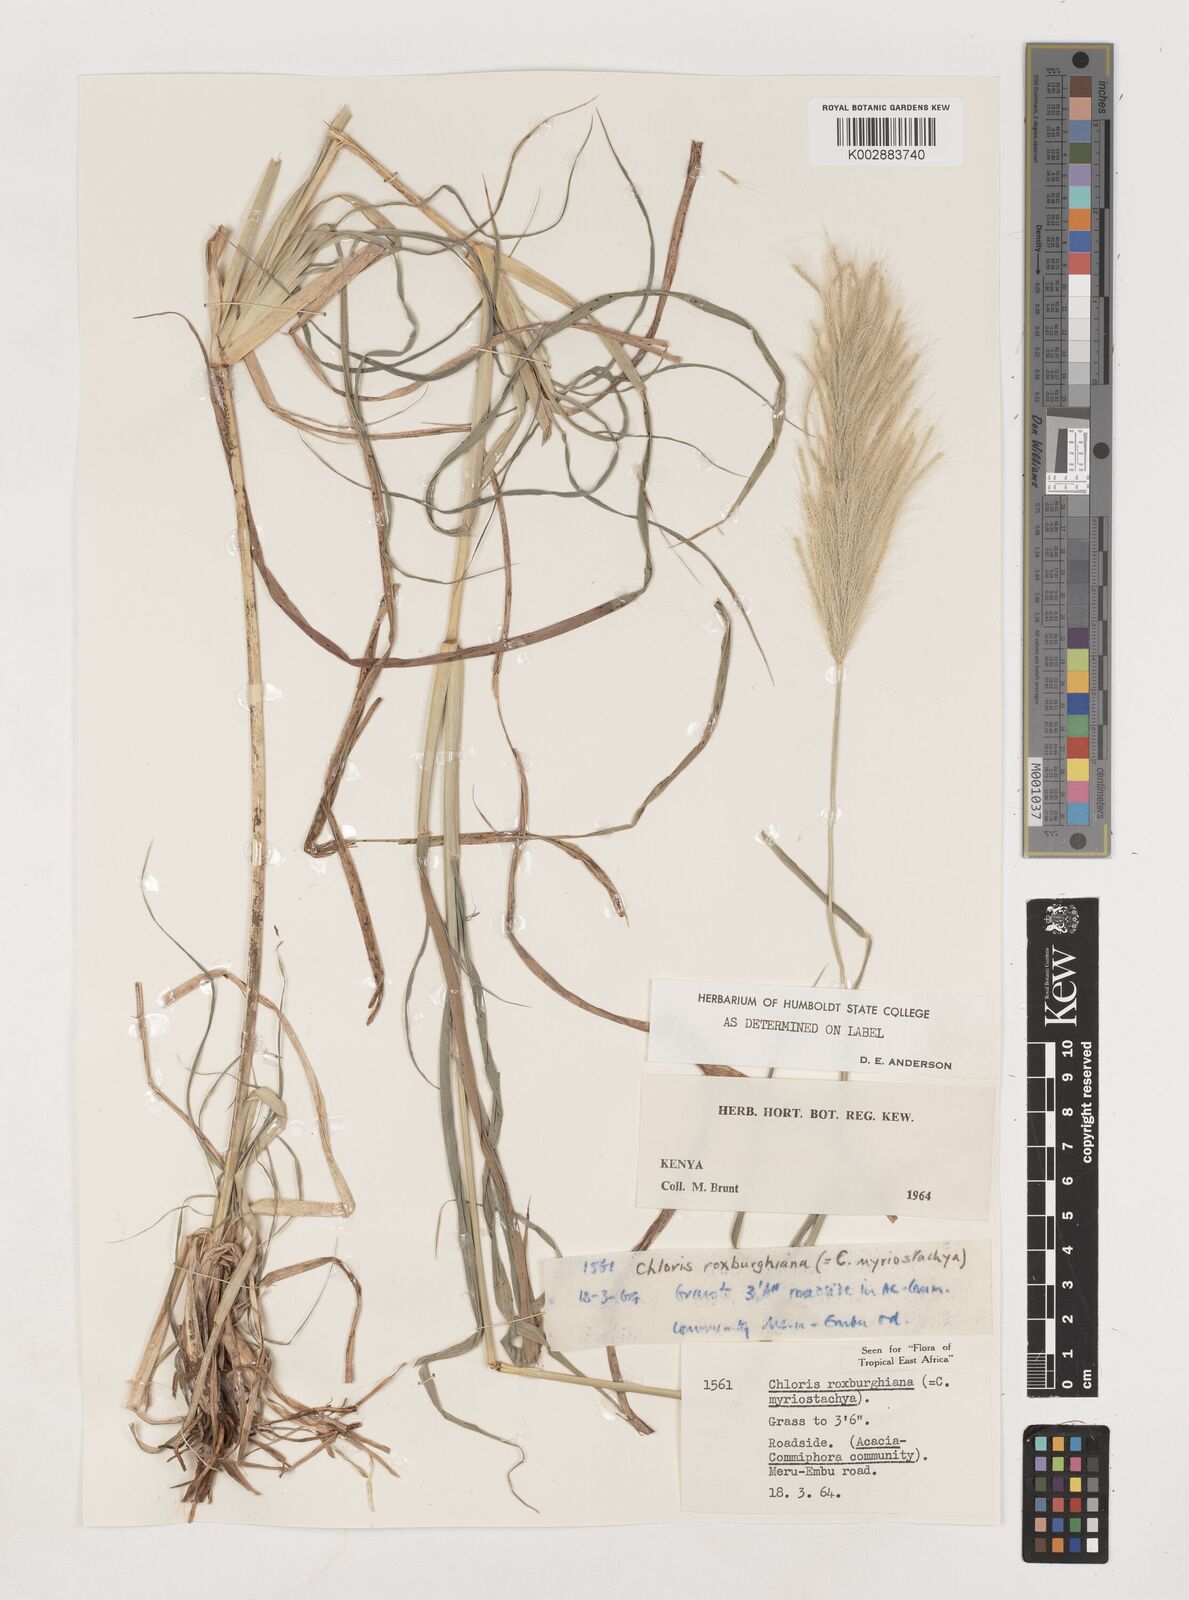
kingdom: Plantae
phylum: Tracheophyta
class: Liliopsida
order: Poales
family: Poaceae
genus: Tetrapogon
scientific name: Tetrapogon roxburghiana
